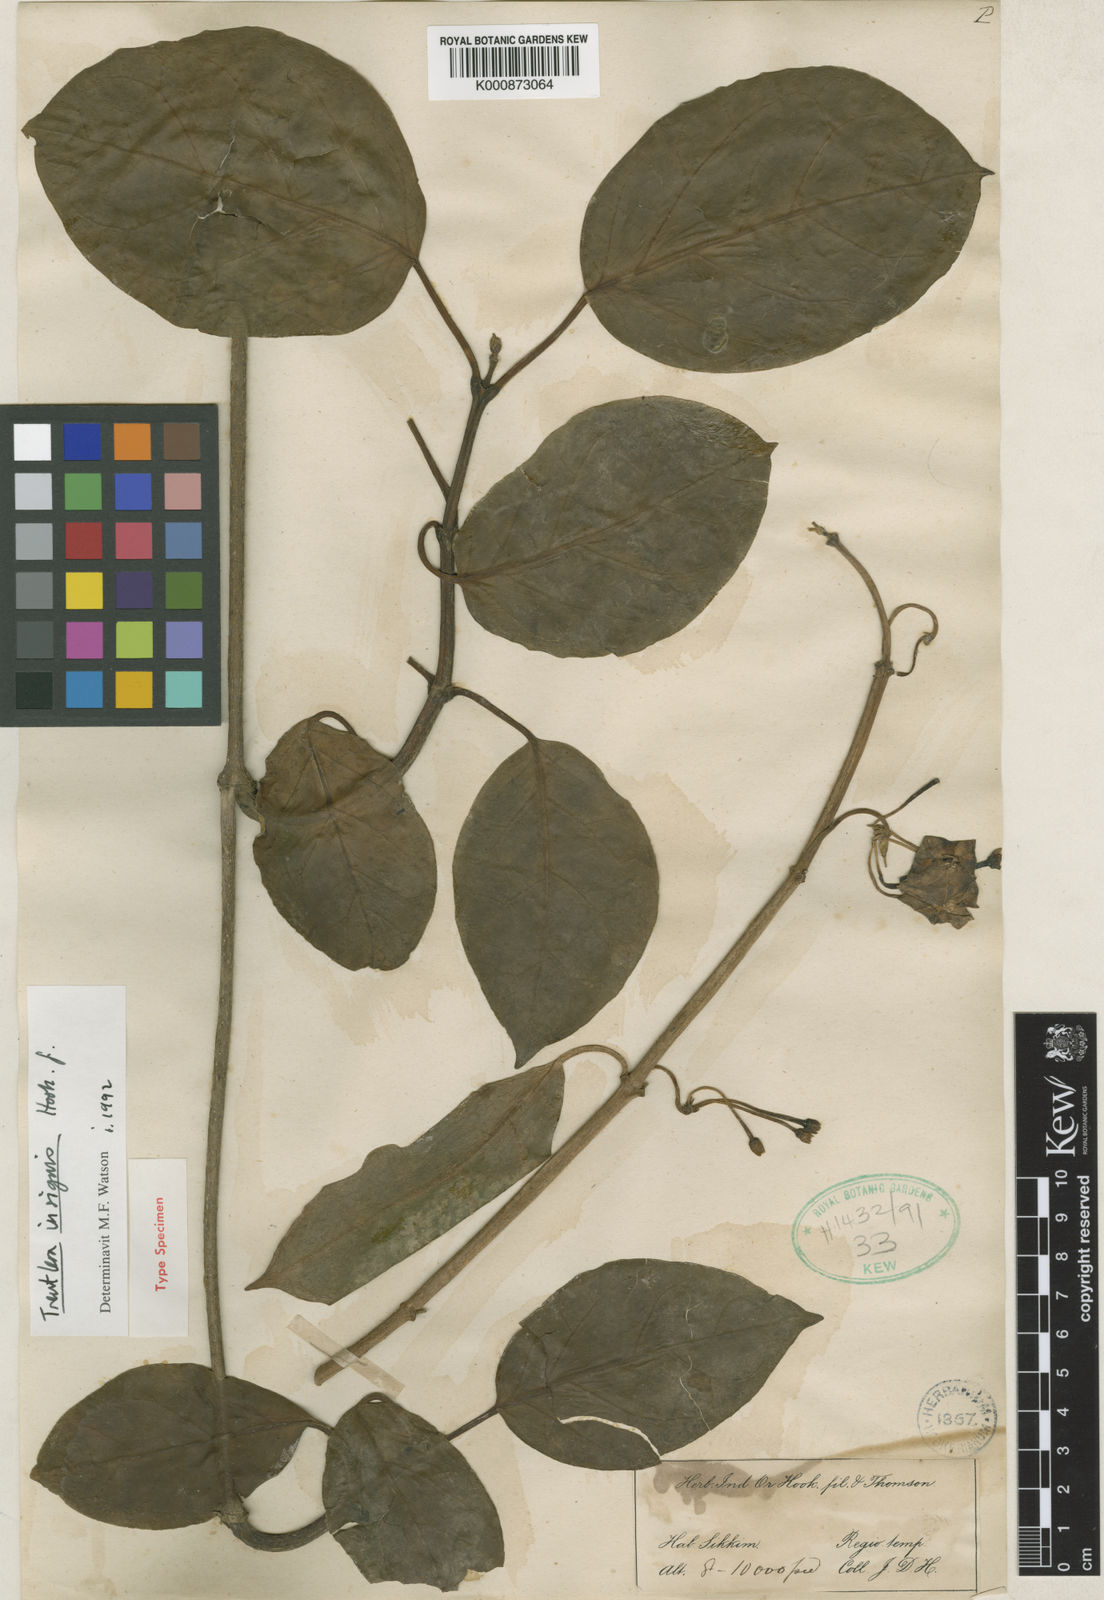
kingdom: Plantae
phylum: Tracheophyta
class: Magnoliopsida
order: Gentianales
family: Apocynaceae
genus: Treutlera
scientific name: Treutlera insignis
